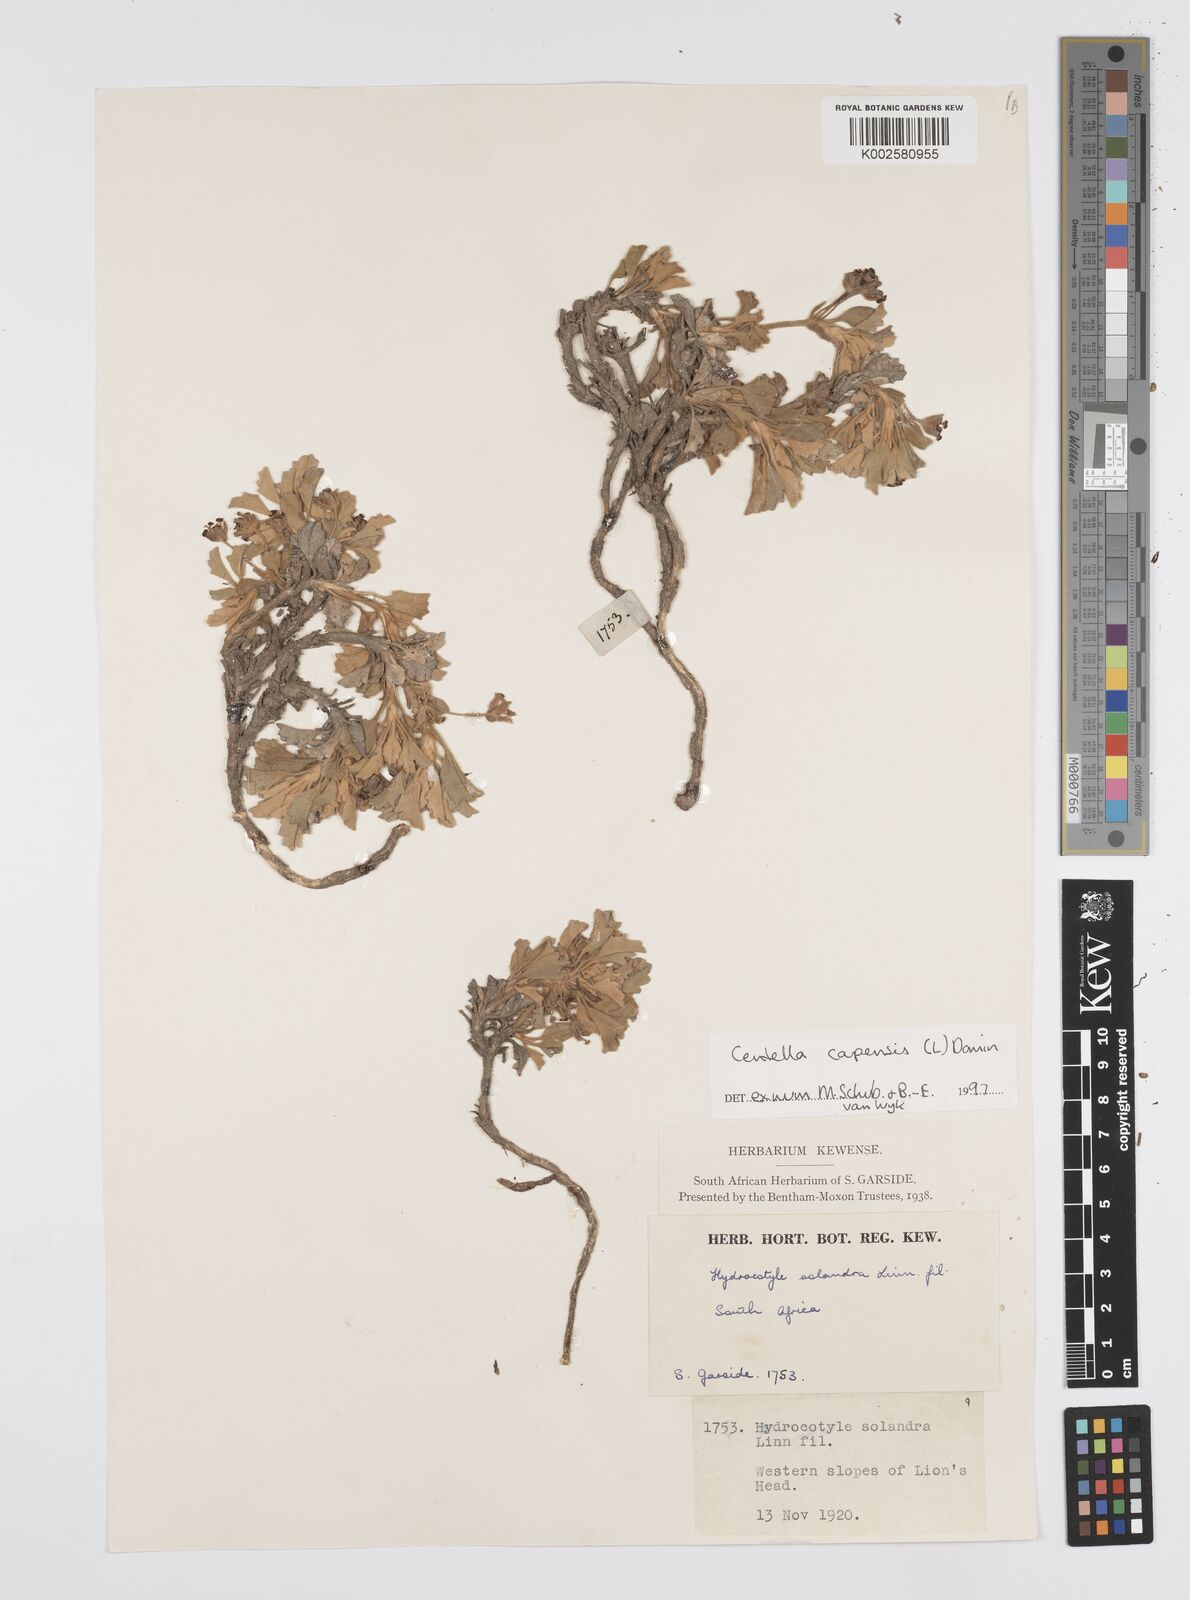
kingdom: Plantae
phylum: Tracheophyta
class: Magnoliopsida
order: Apiales
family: Apiaceae
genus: Centella
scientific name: Centella capensis
